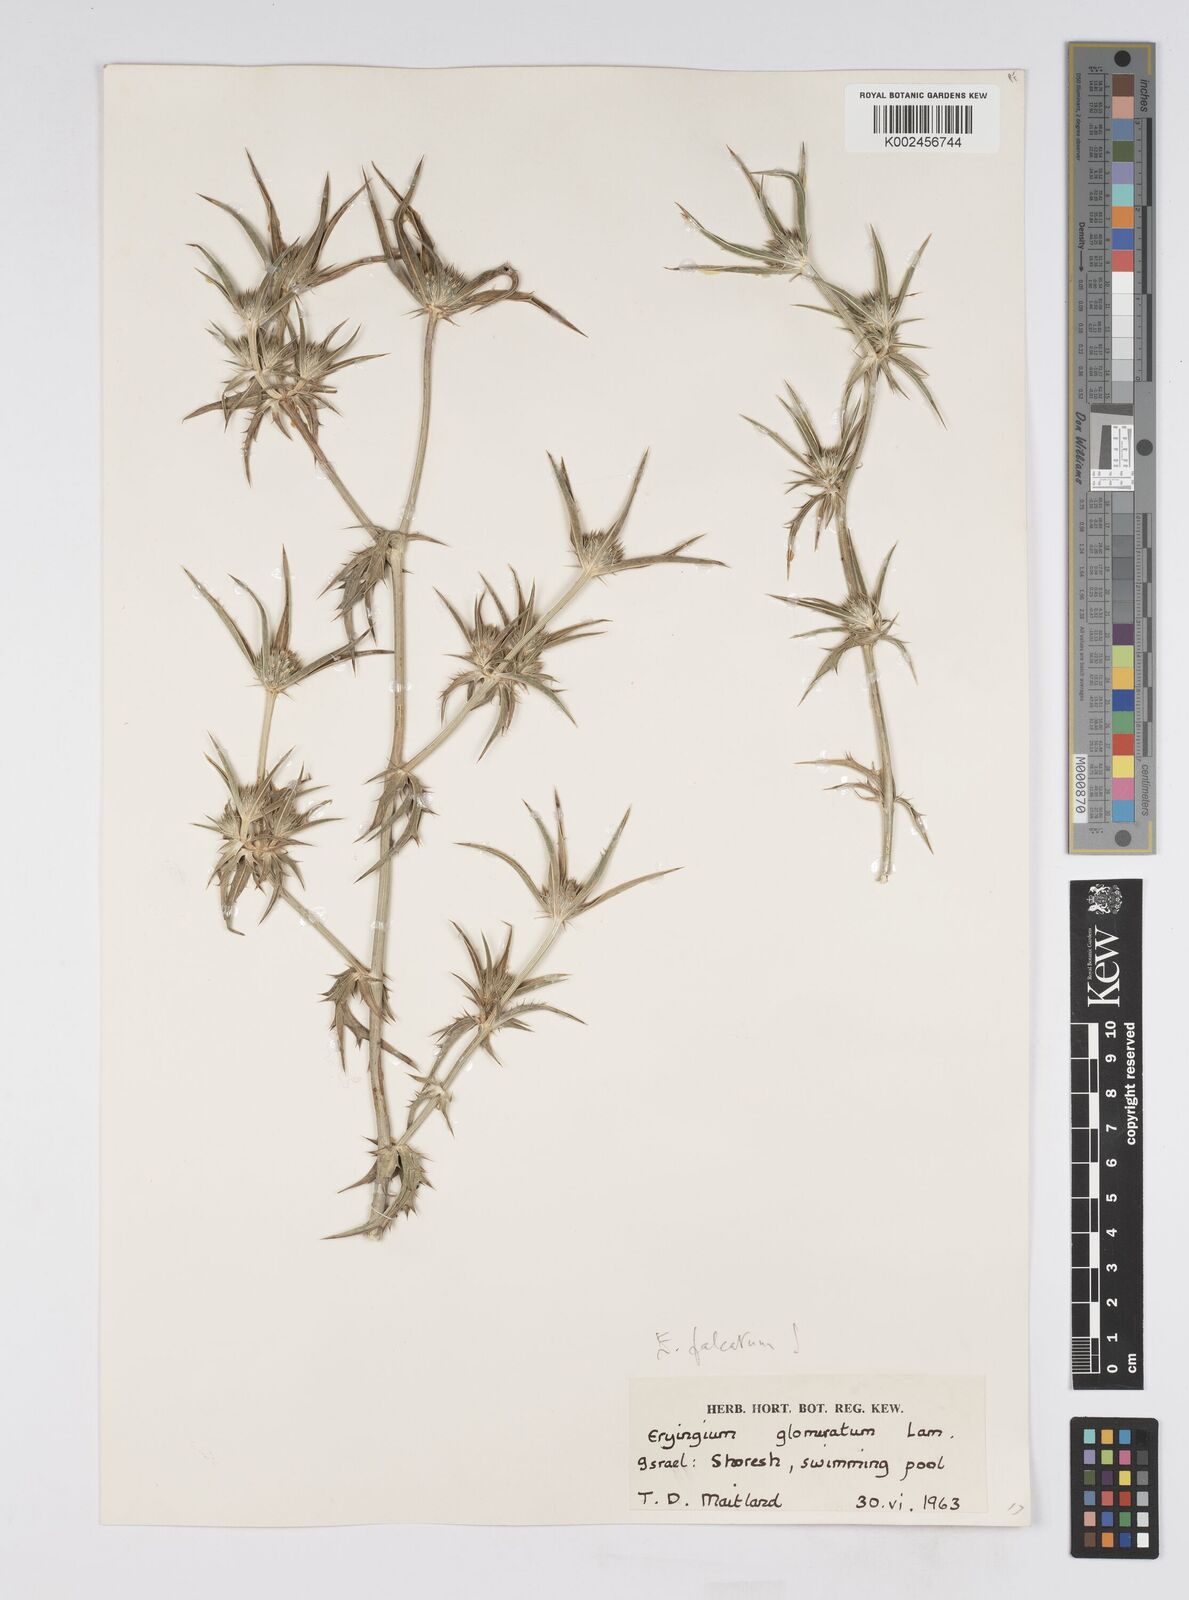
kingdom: Plantae
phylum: Tracheophyta
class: Magnoliopsida
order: Apiales
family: Apiaceae
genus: Eryngium
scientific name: Eryngium falcatum
